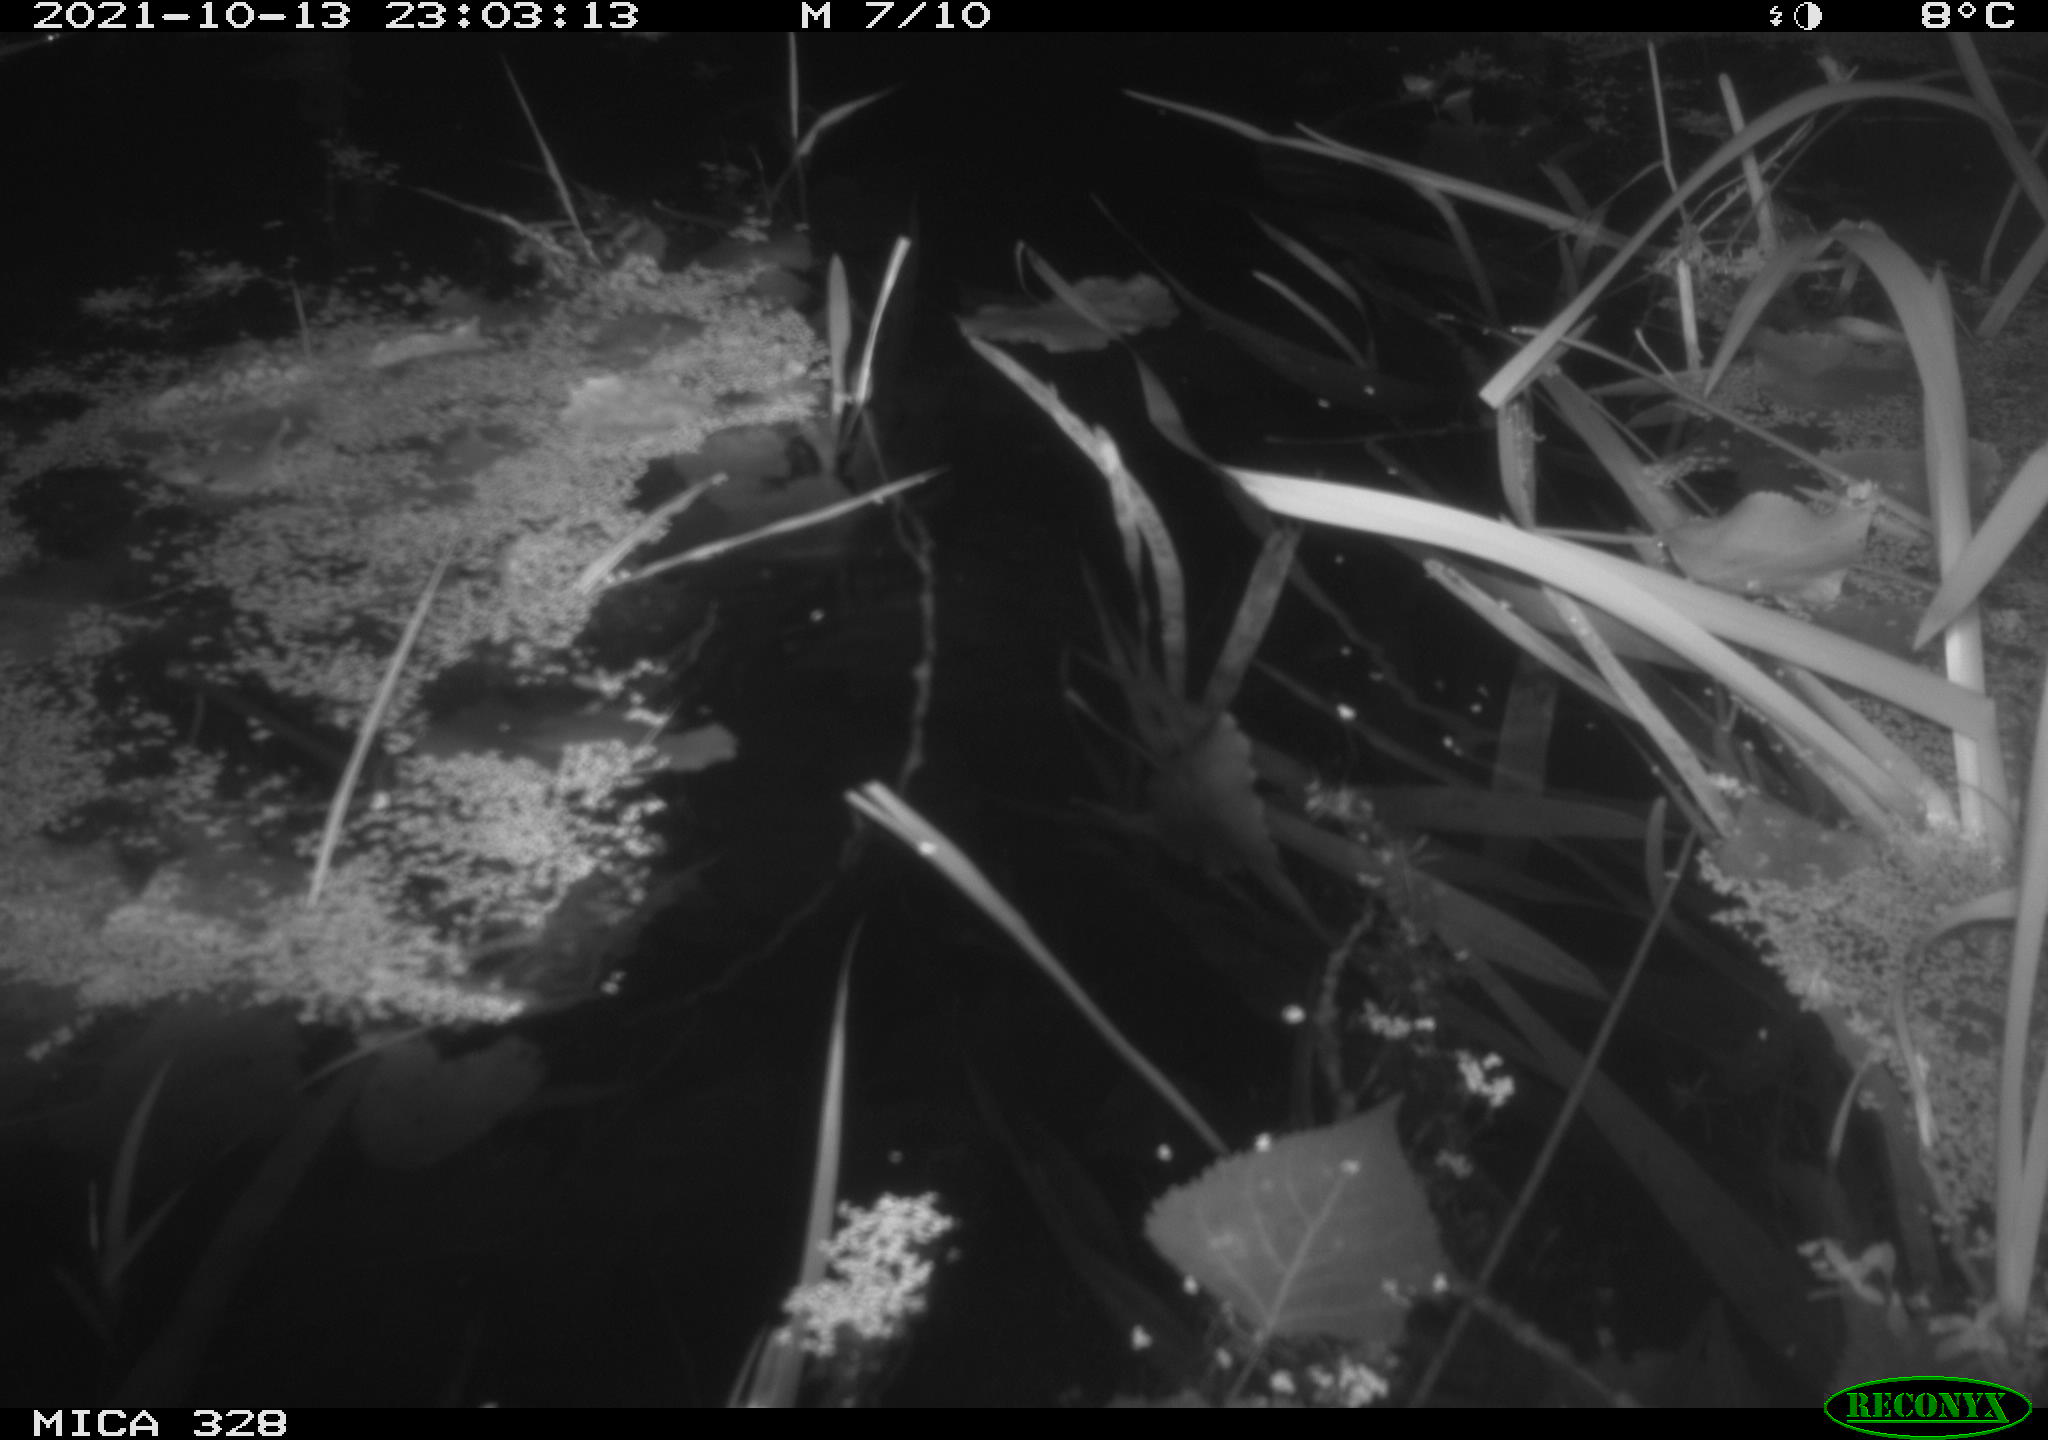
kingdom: Animalia
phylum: Chordata
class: Mammalia
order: Rodentia
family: Muridae
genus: Rattus
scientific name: Rattus norvegicus
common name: Brown rat
